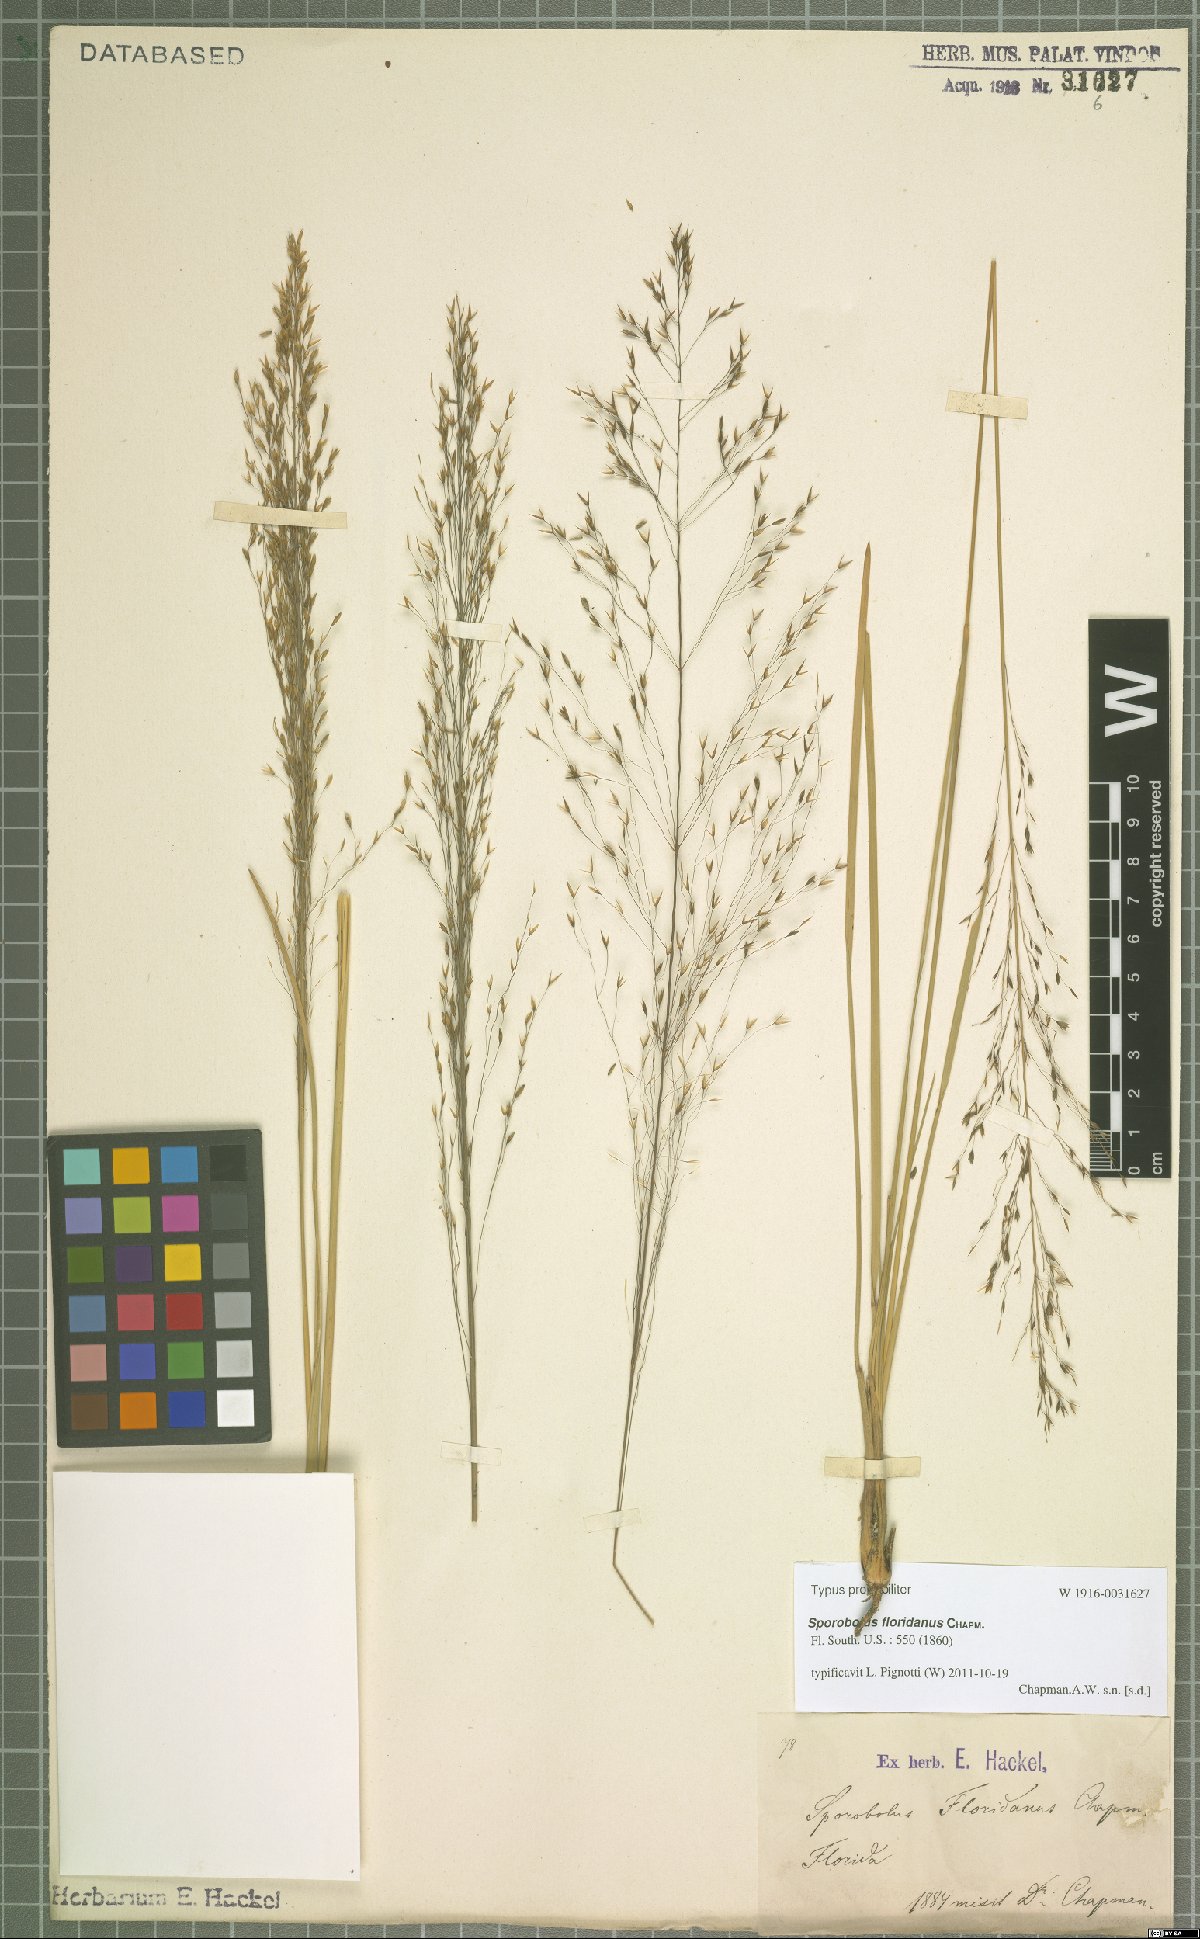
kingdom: Plantae
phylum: Tracheophyta
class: Liliopsida
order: Poales
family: Poaceae
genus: Sporobolus
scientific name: Sporobolus floridanus
